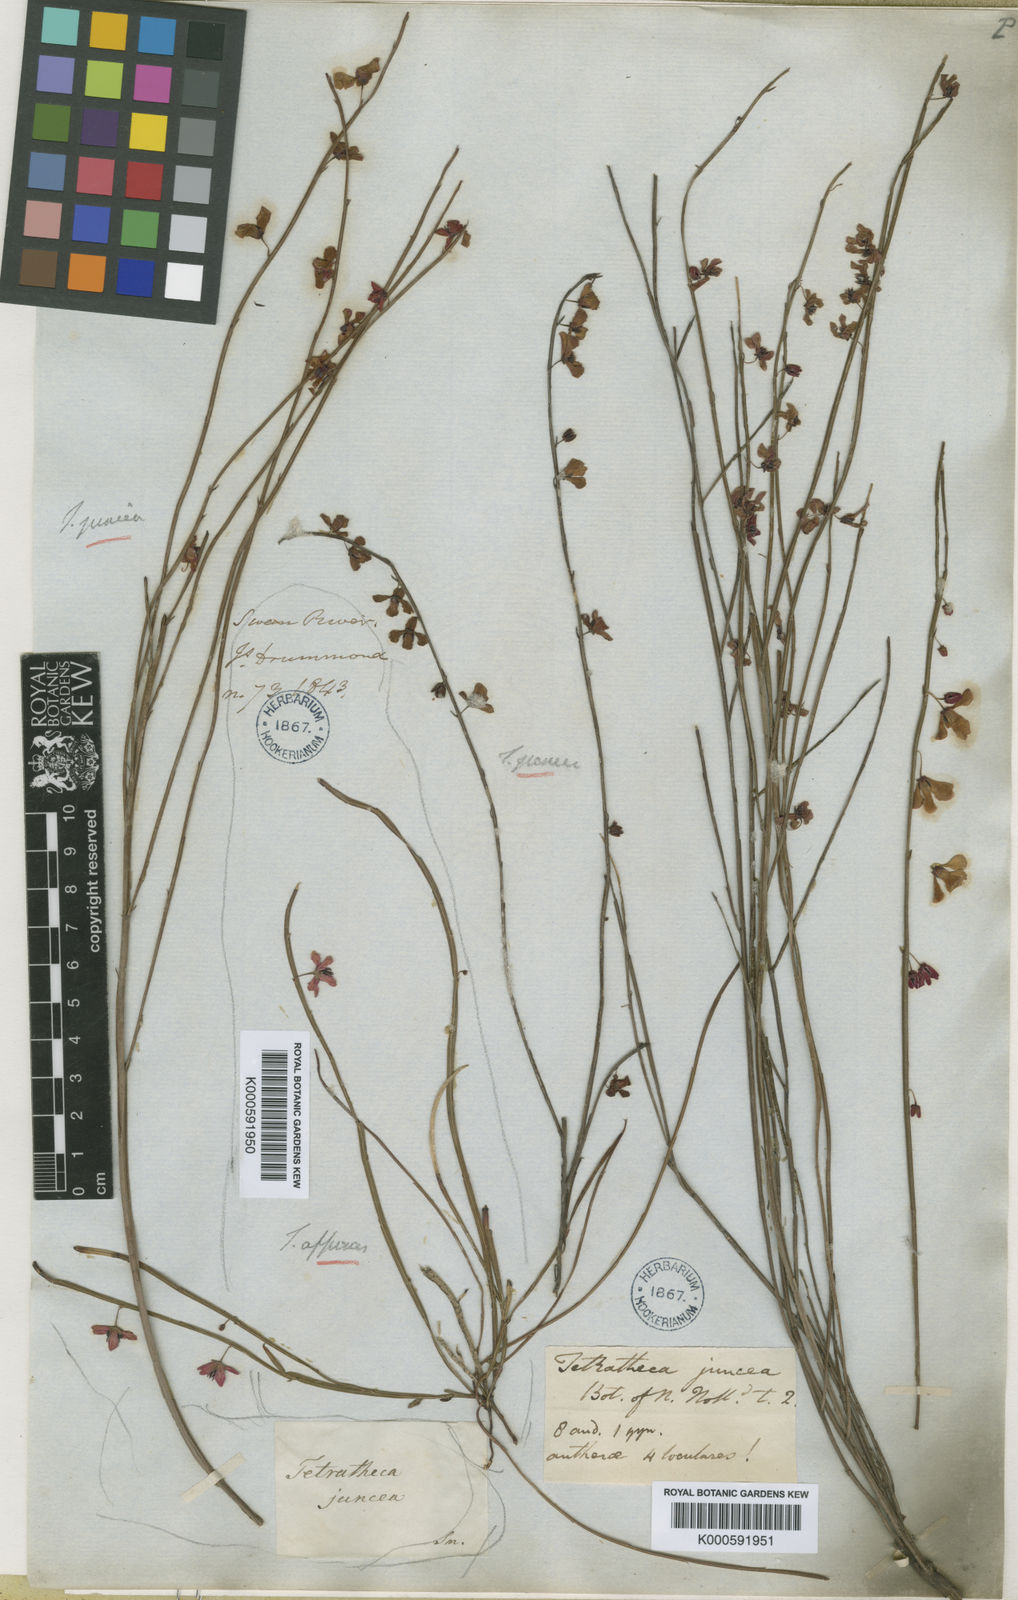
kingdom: Plantae
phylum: Tracheophyta
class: Magnoliopsida
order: Oxalidales
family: Elaeocarpaceae
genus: Tetratheca
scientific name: Tetratheca juncea
